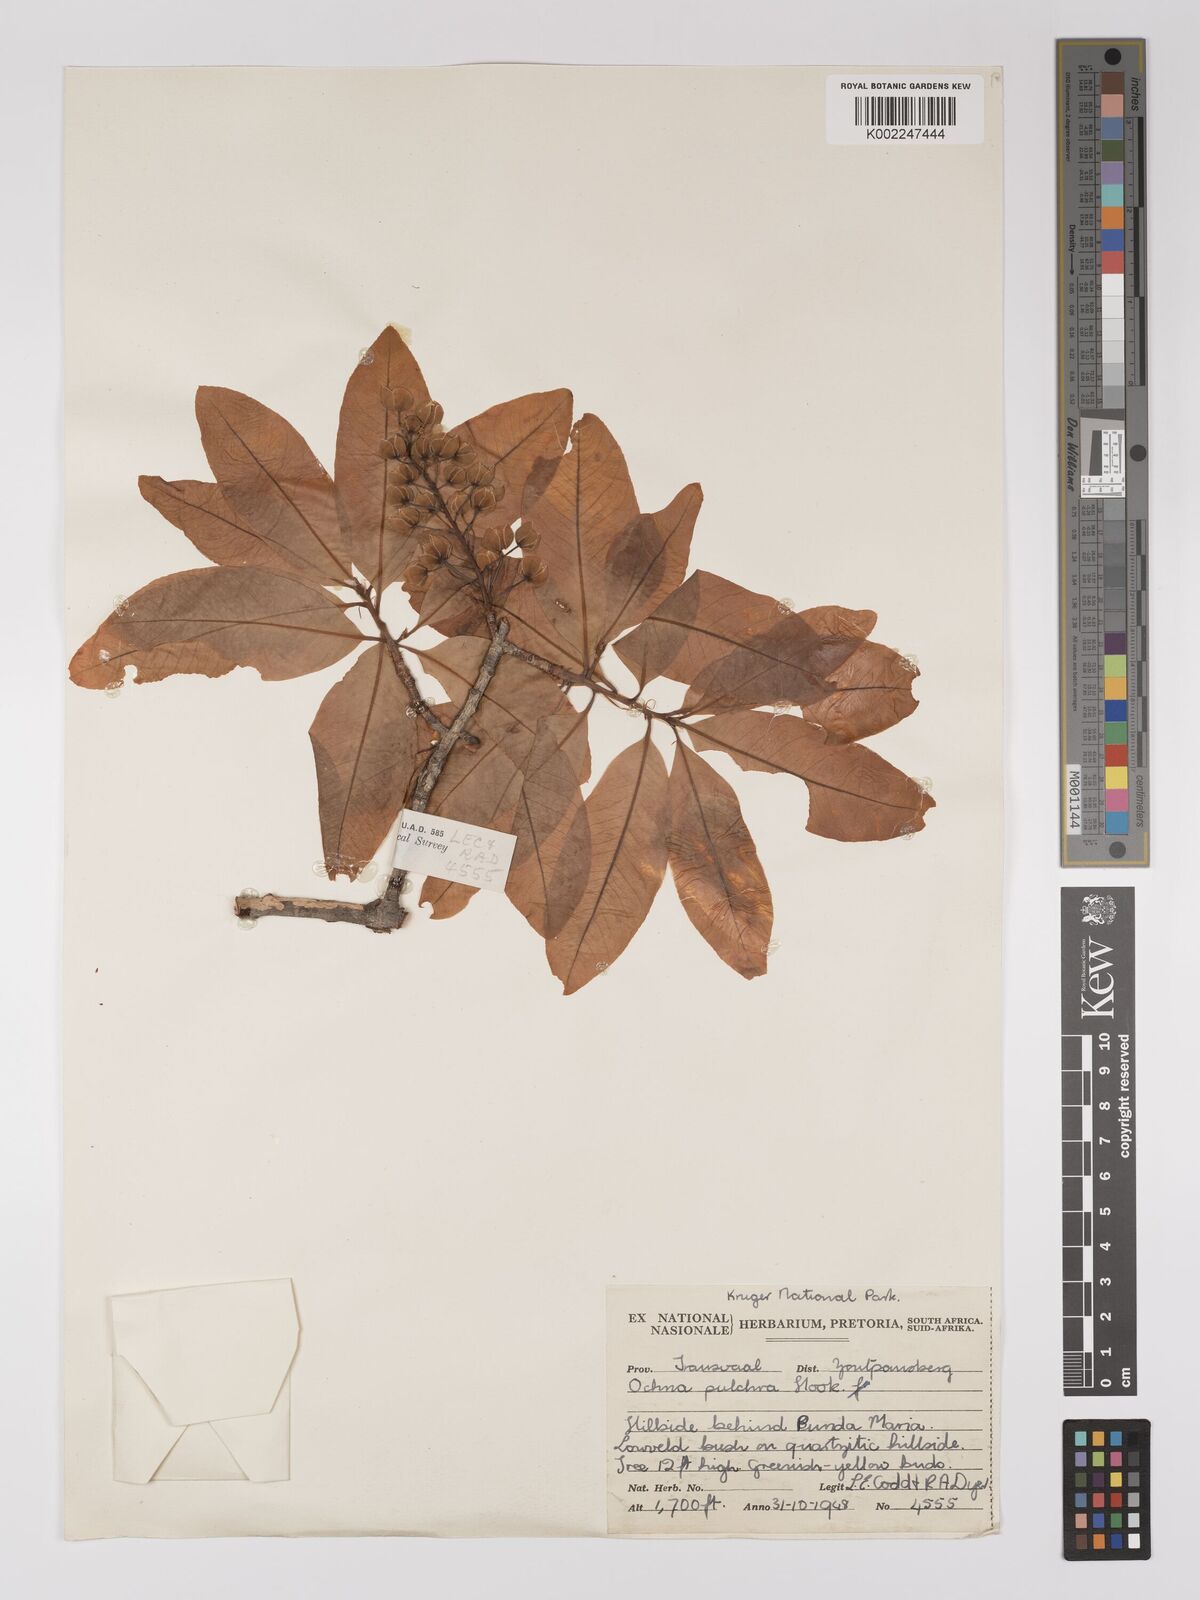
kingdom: Plantae
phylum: Tracheophyta
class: Magnoliopsida
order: Malpighiales
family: Ochnaceae
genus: Ochna
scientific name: Ochna pulchra
